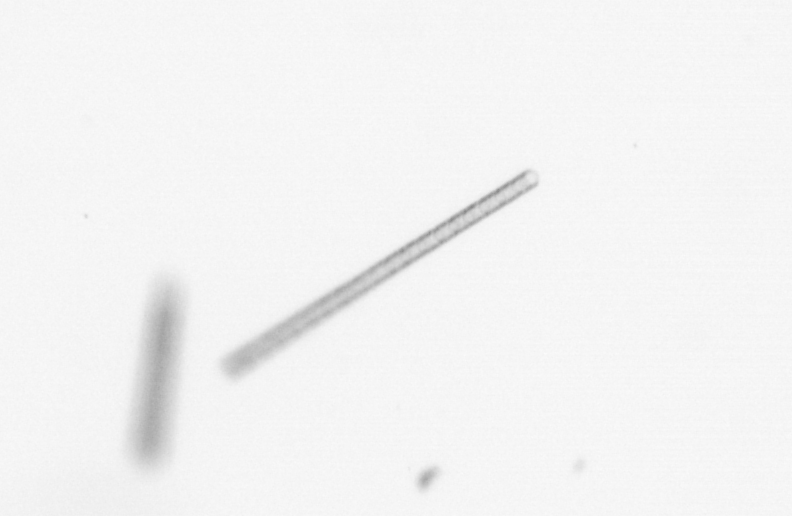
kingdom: Chromista
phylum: Ochrophyta
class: Bacillariophyceae
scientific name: Bacillariophyceae
